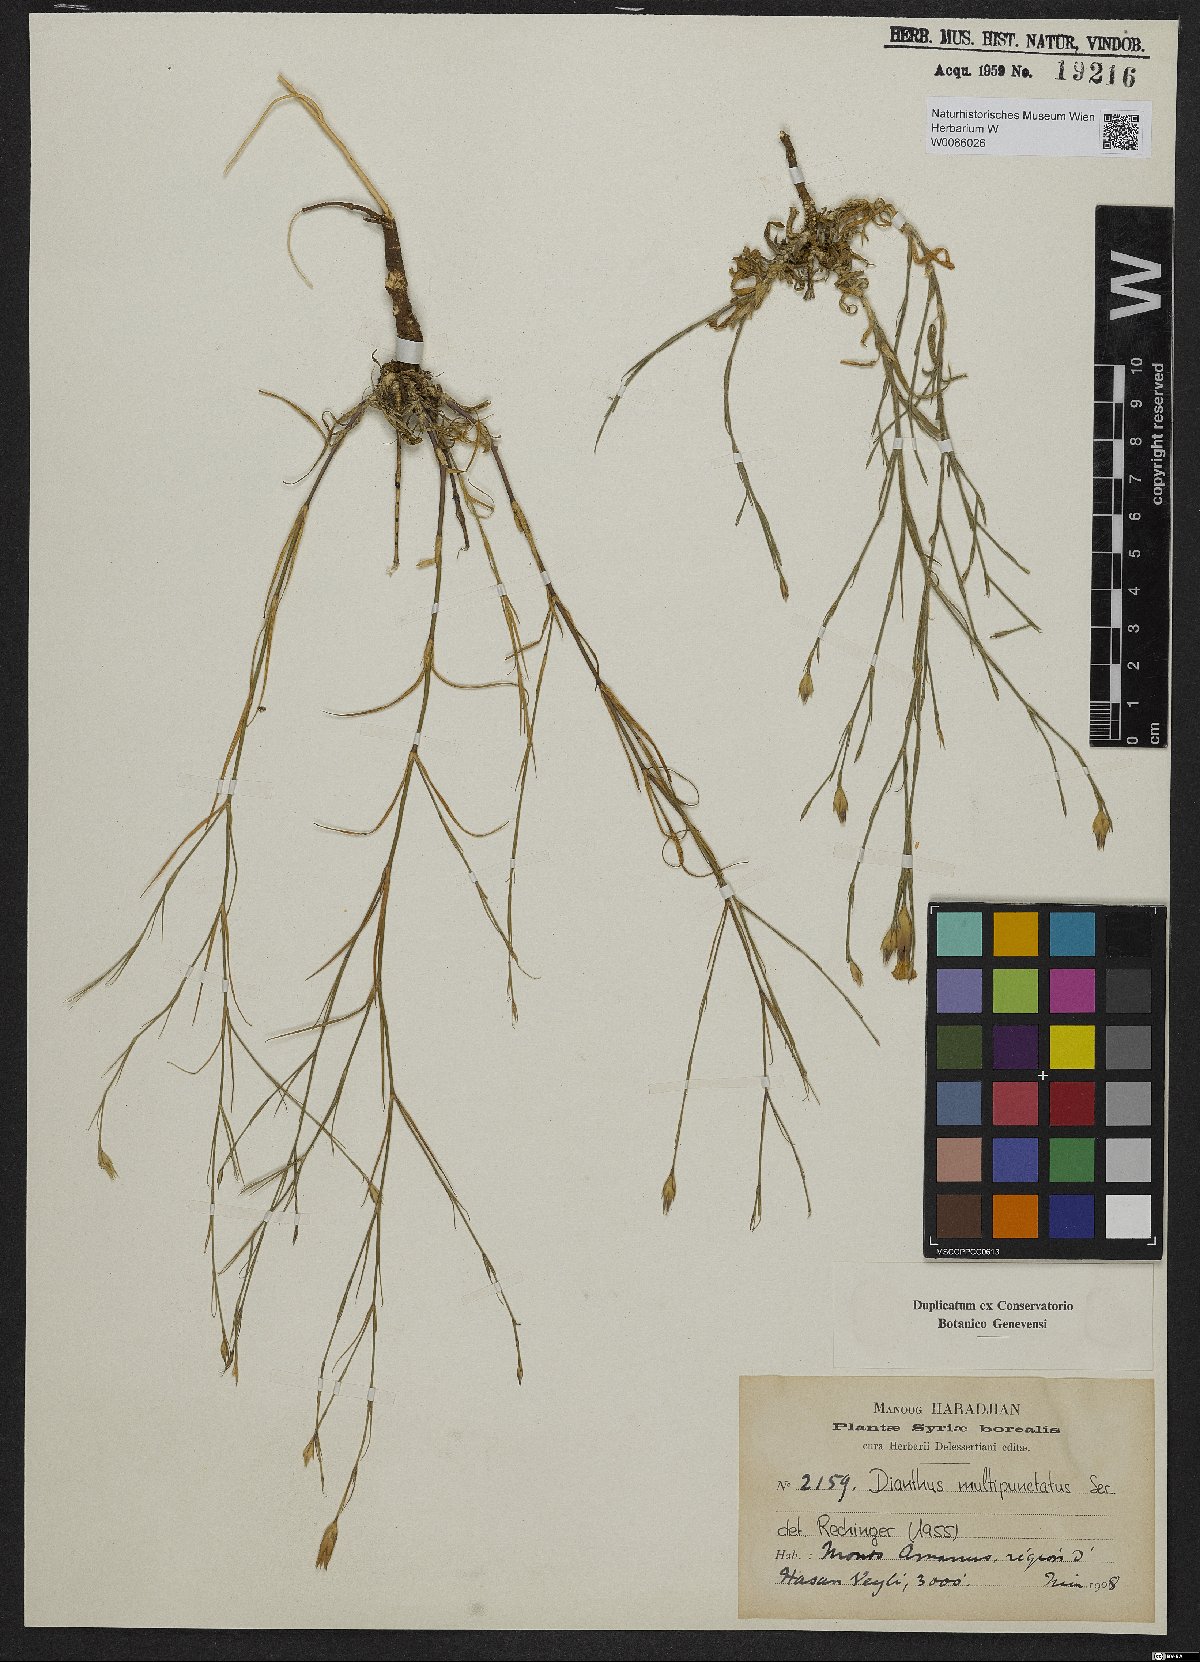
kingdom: Plantae
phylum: Tracheophyta
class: Magnoliopsida
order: Caryophyllales
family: Caryophyllaceae
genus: Dianthus
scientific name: Dianthus strictus
